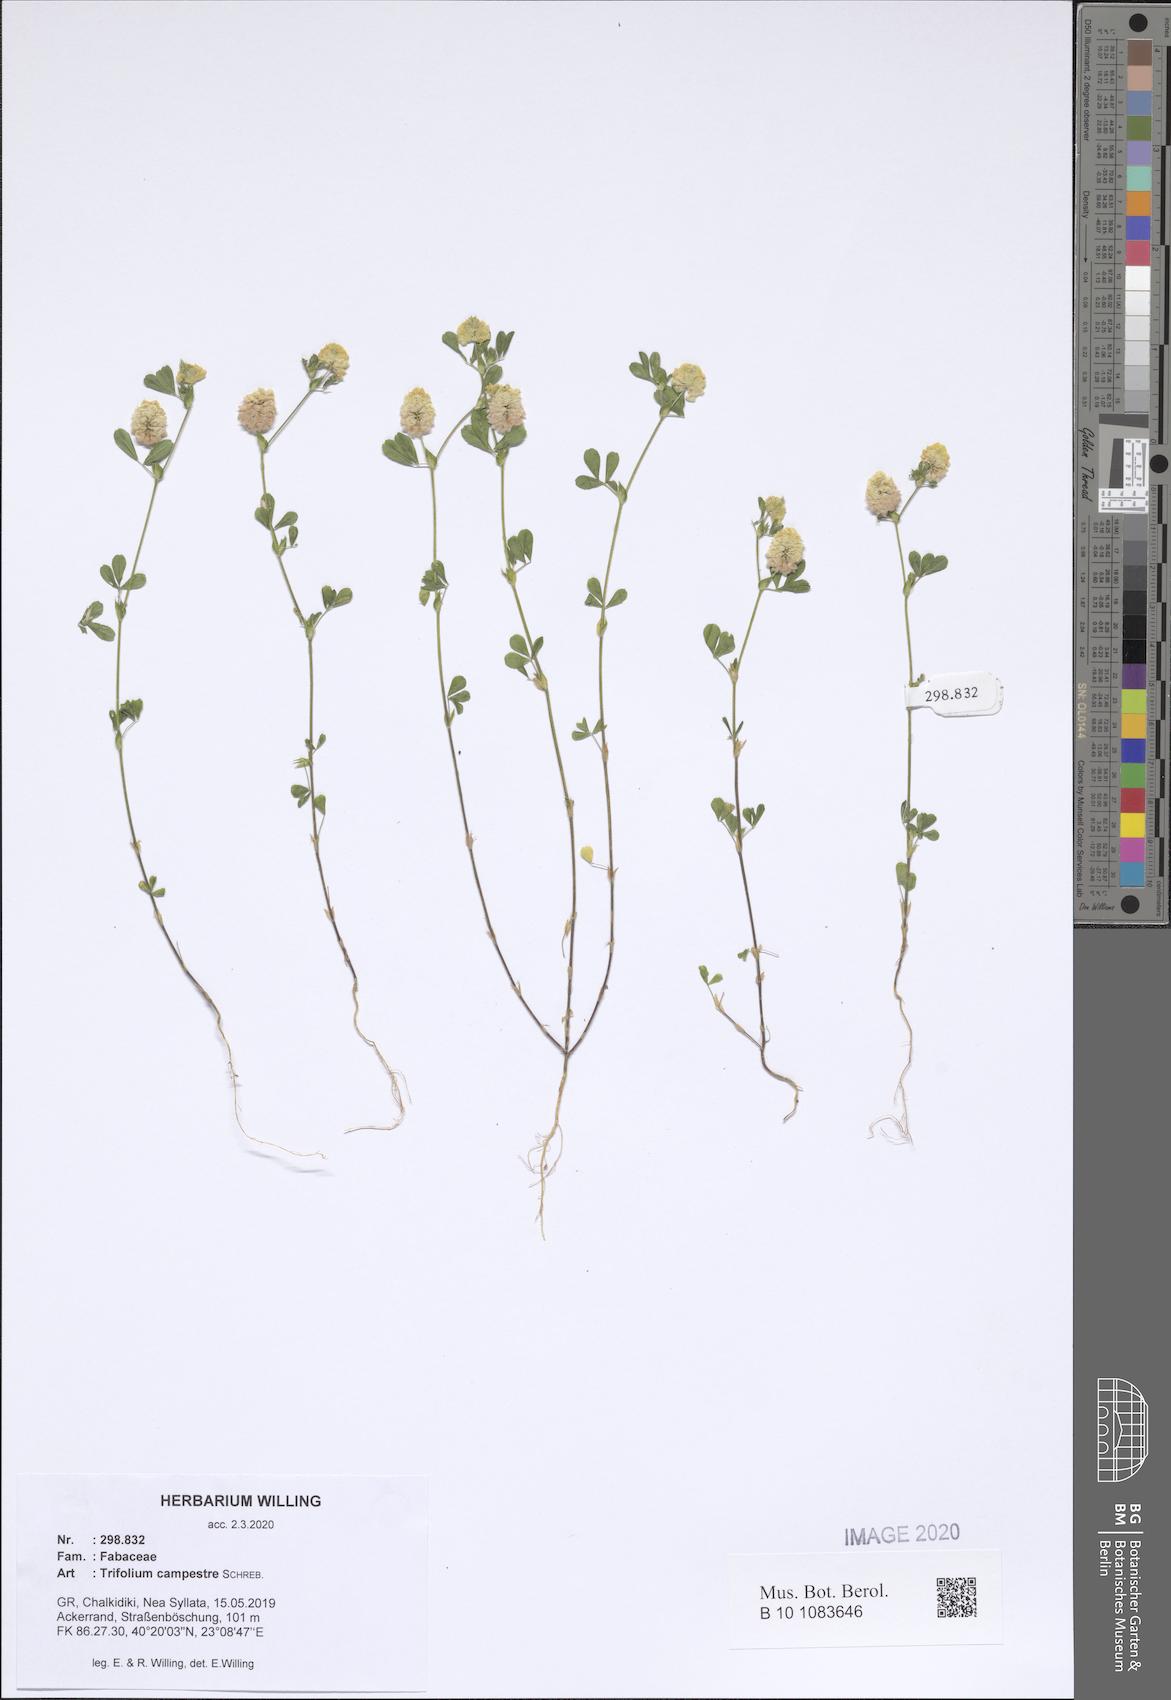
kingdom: Plantae
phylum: Tracheophyta
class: Magnoliopsida
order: Fabales
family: Fabaceae
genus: Trifolium
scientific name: Trifolium campestre
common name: Field clover
